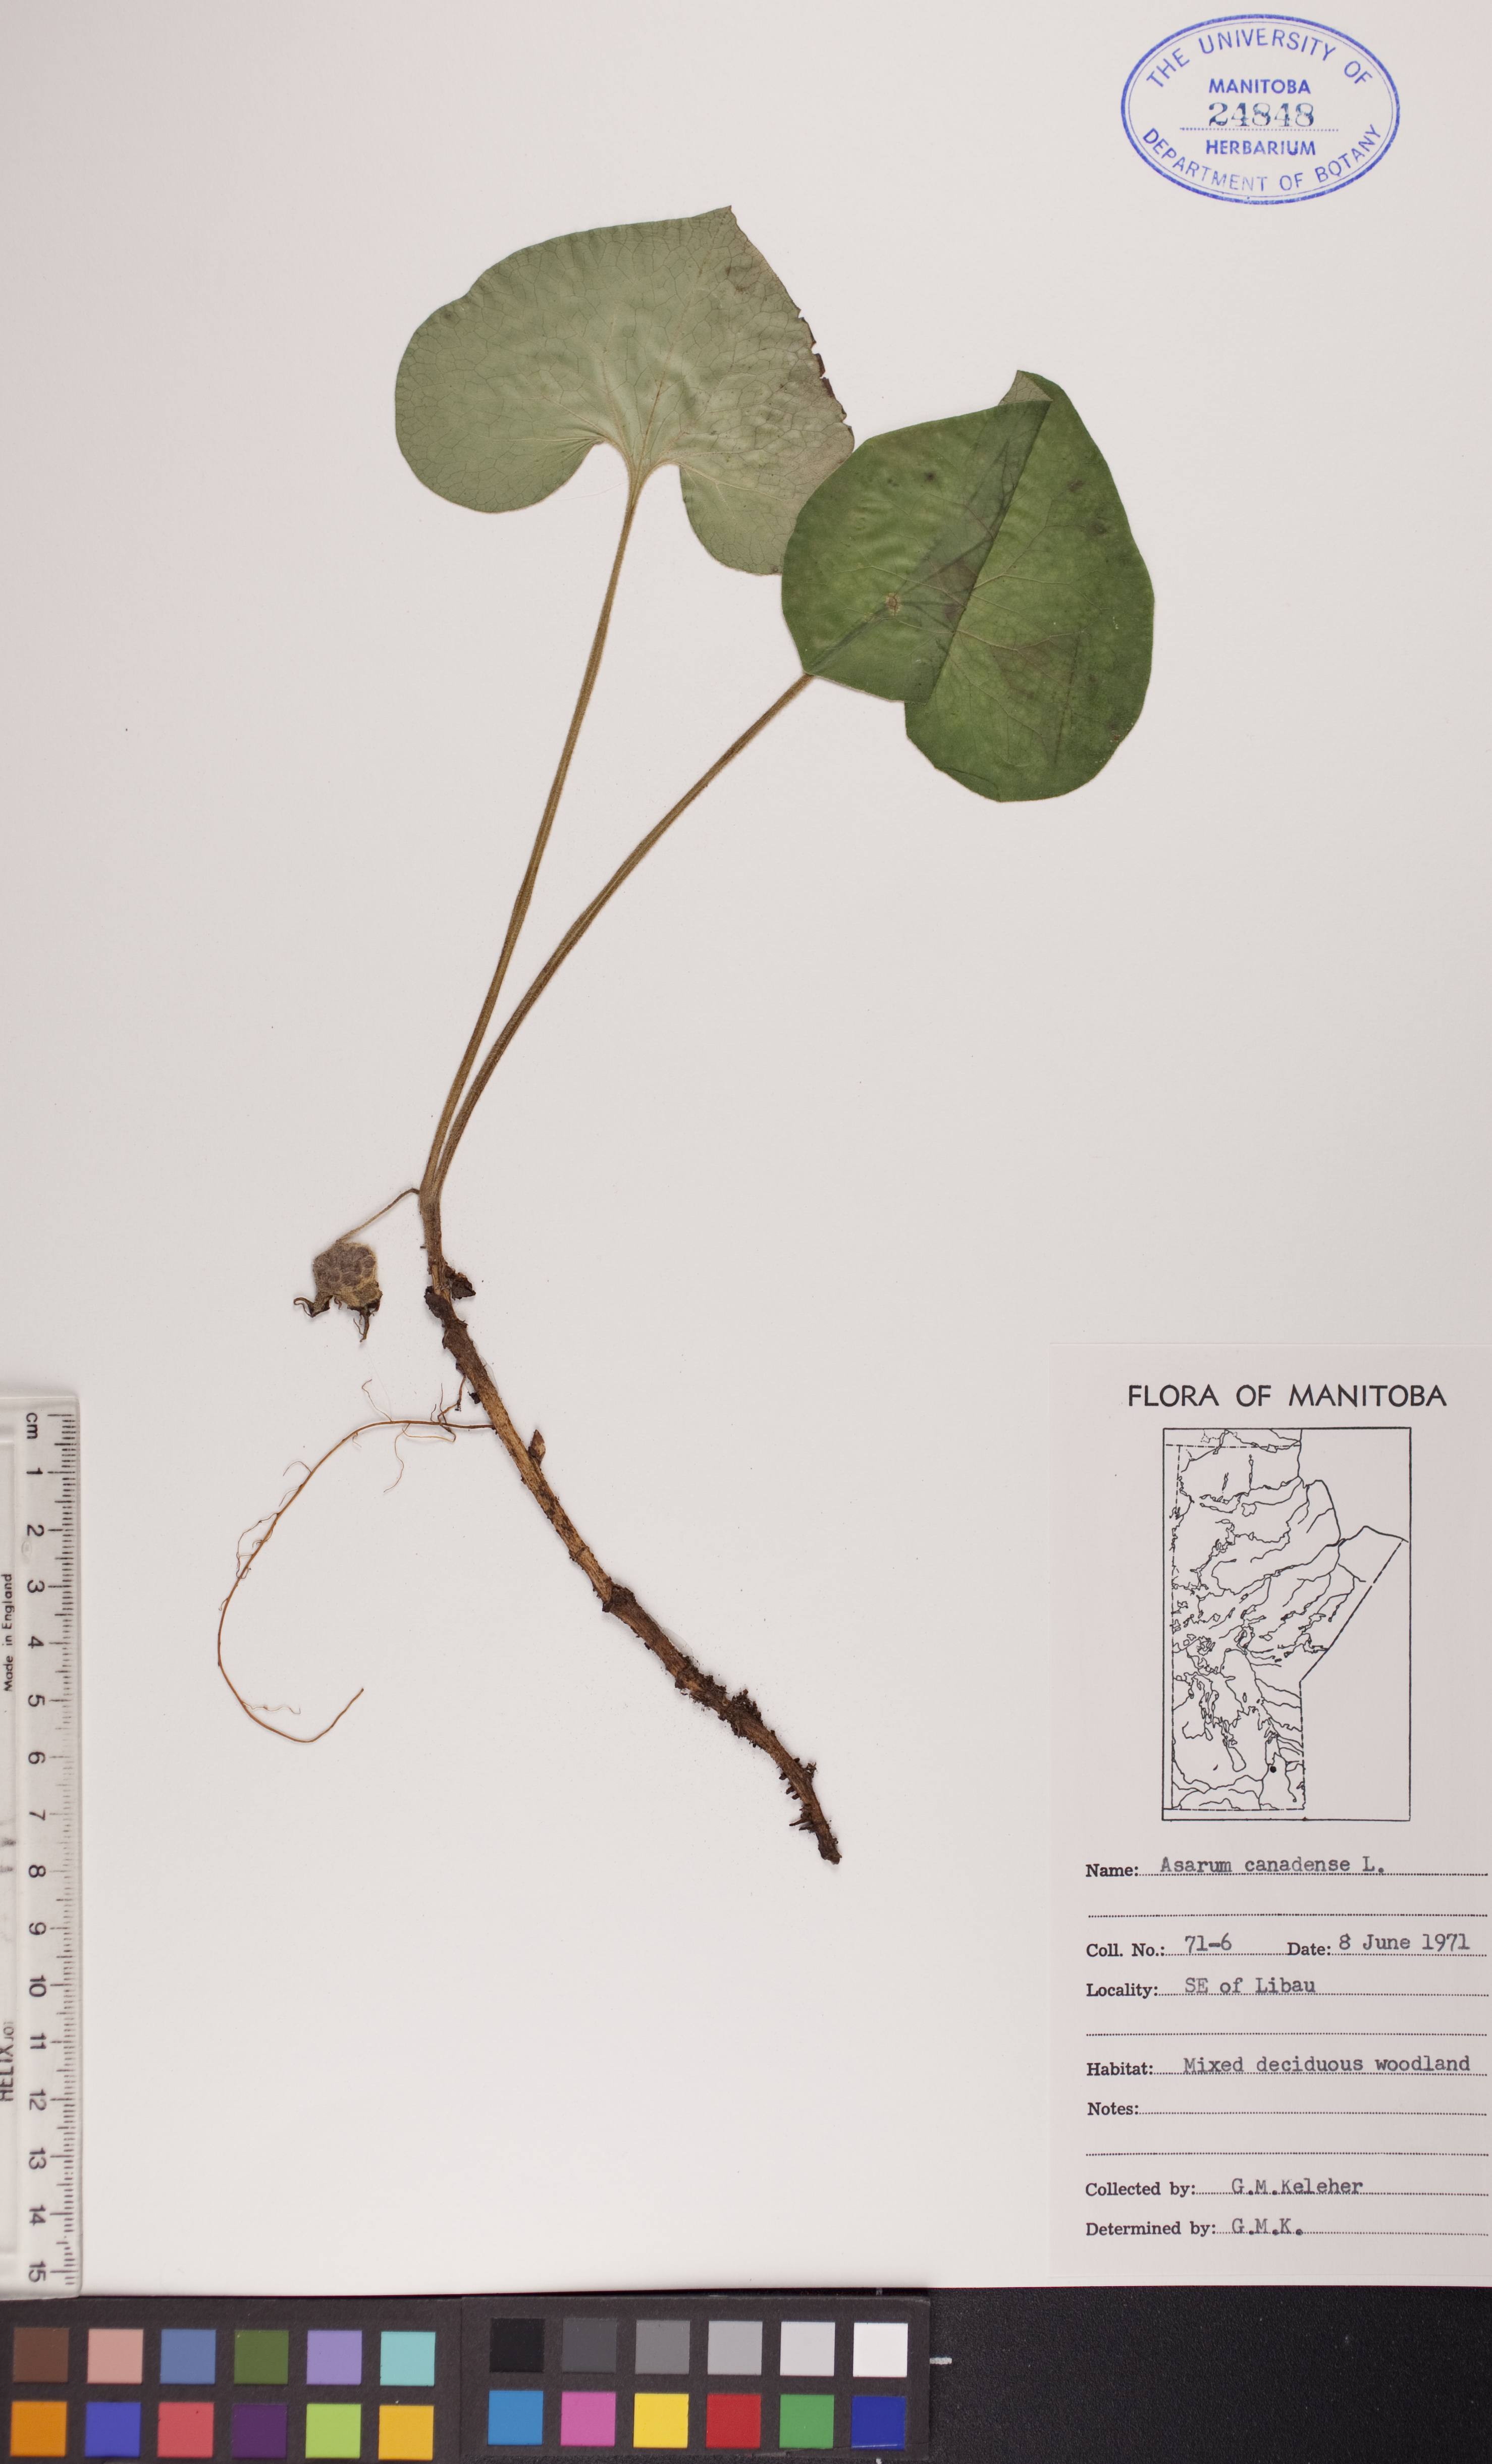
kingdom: Plantae
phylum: Tracheophyta
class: Magnoliopsida
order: Piperales
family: Aristolochiaceae
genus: Asarum
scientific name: Asarum canadense
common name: Wild ginger
